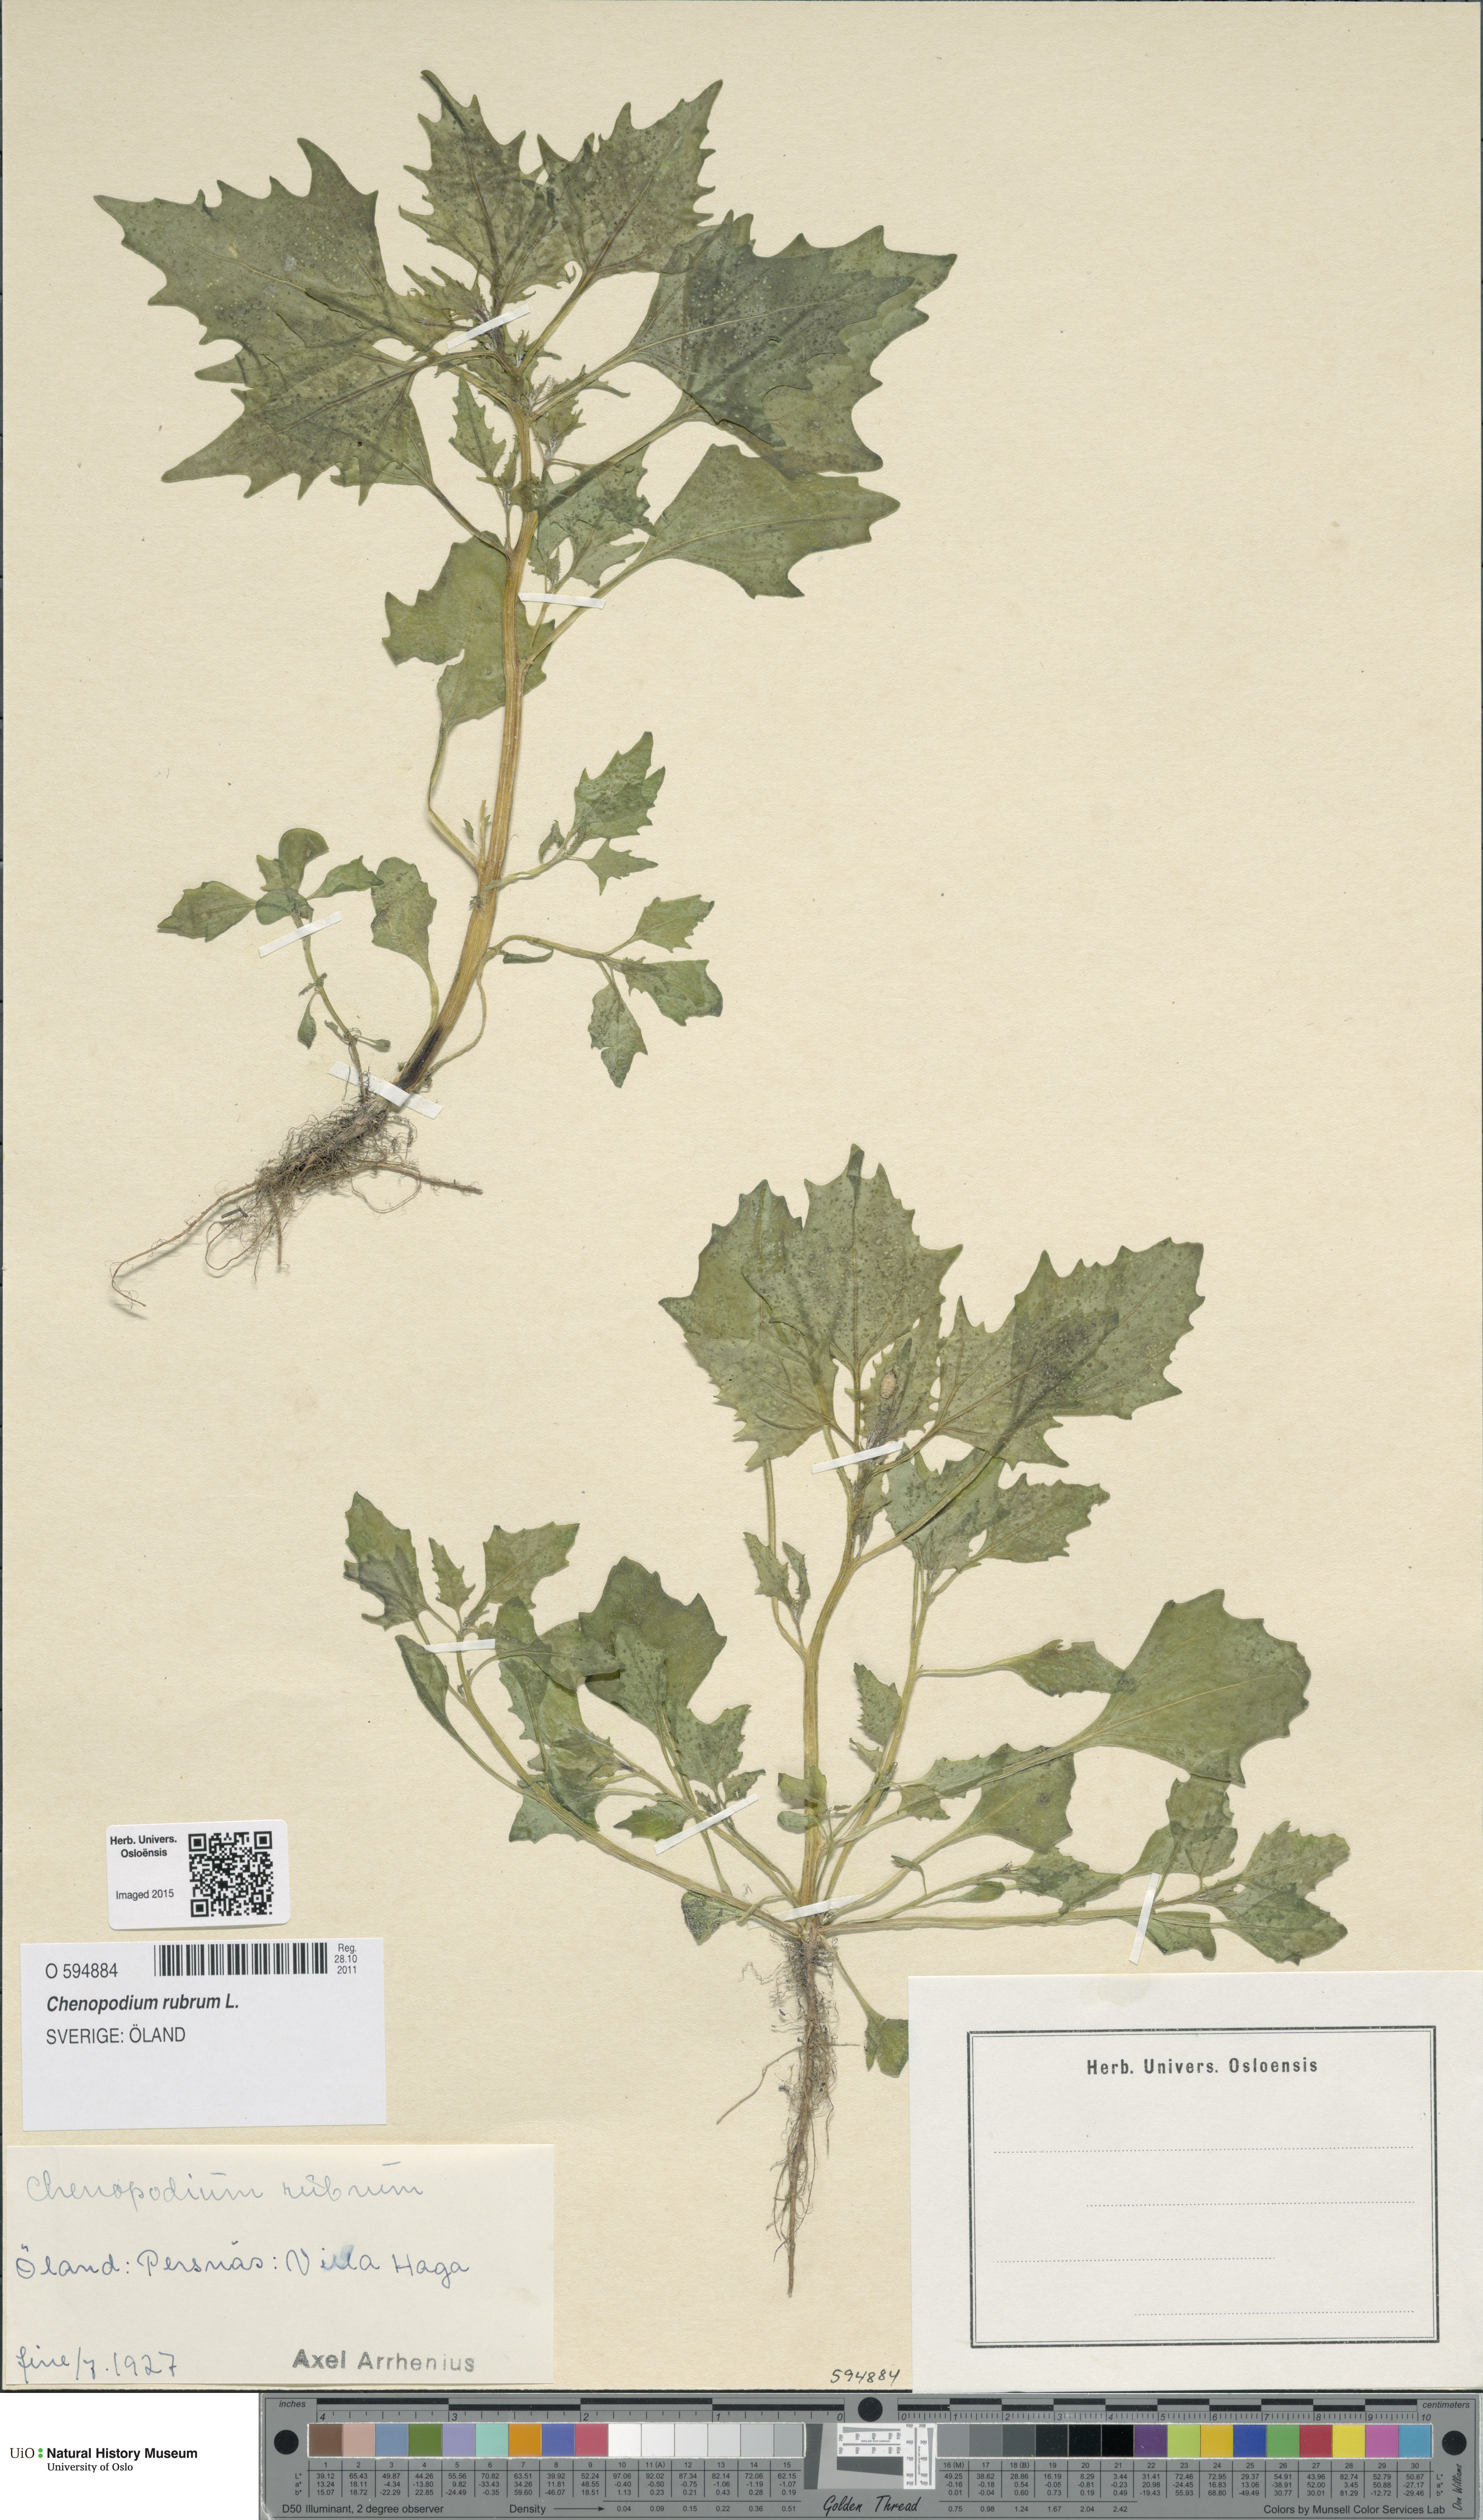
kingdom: Plantae
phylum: Tracheophyta
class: Magnoliopsida
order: Caryophyllales
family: Amaranthaceae
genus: Oxybasis
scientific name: Oxybasis rubra
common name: Red goosefoot
